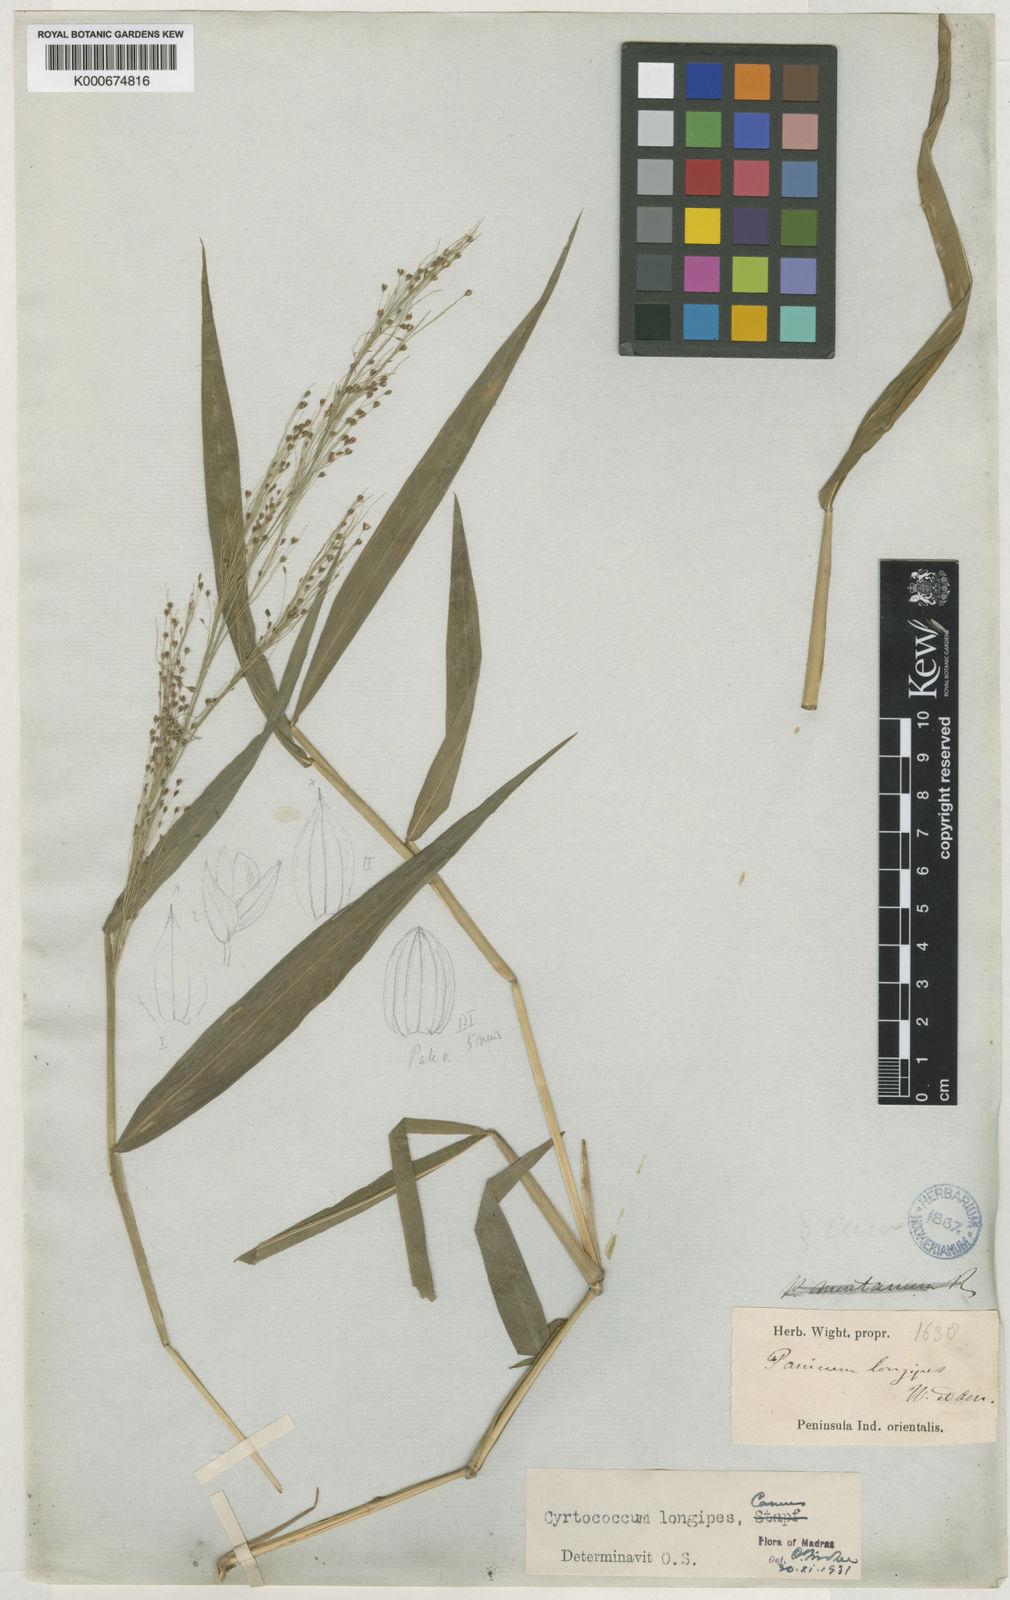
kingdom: Plantae
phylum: Tracheophyta
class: Liliopsida
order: Poales
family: Poaceae
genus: Cyrtococcum
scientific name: Cyrtococcum longipes
